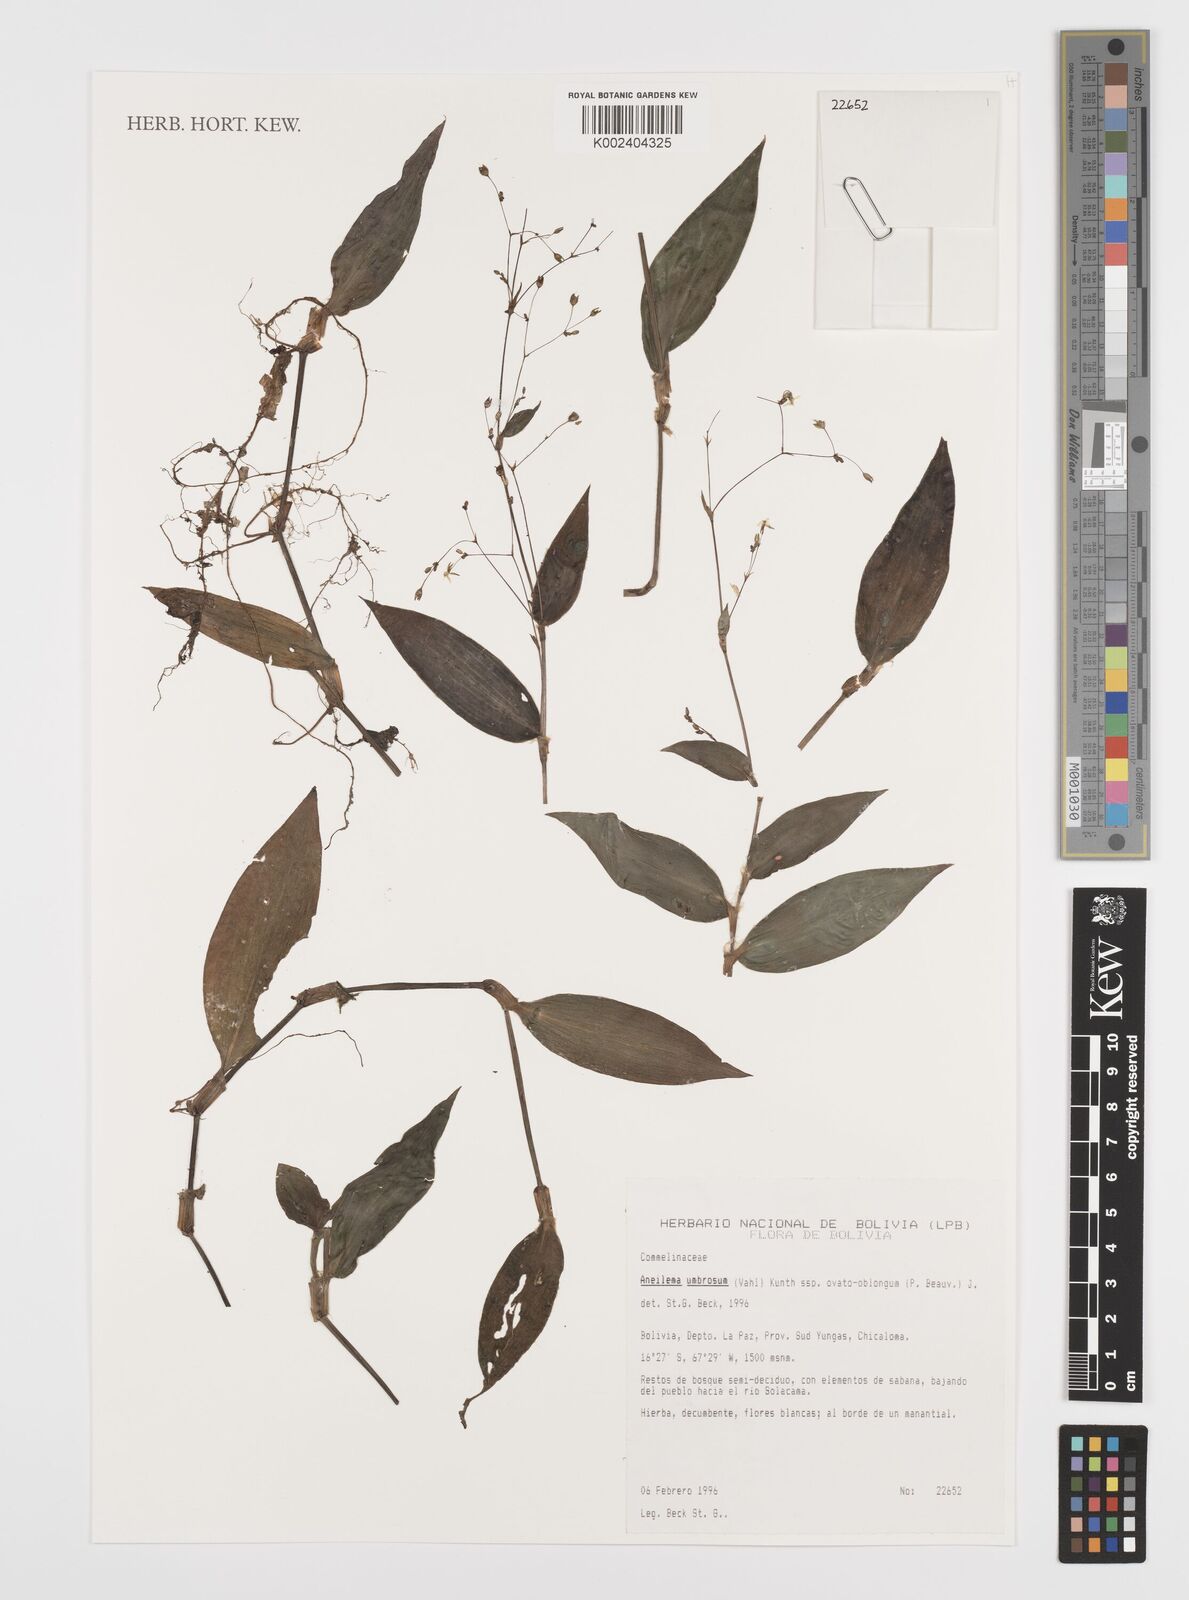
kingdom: Plantae
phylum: Tracheophyta
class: Liliopsida
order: Commelinales
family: Commelinaceae
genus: Aneilema
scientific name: Aneilema umbrosum
